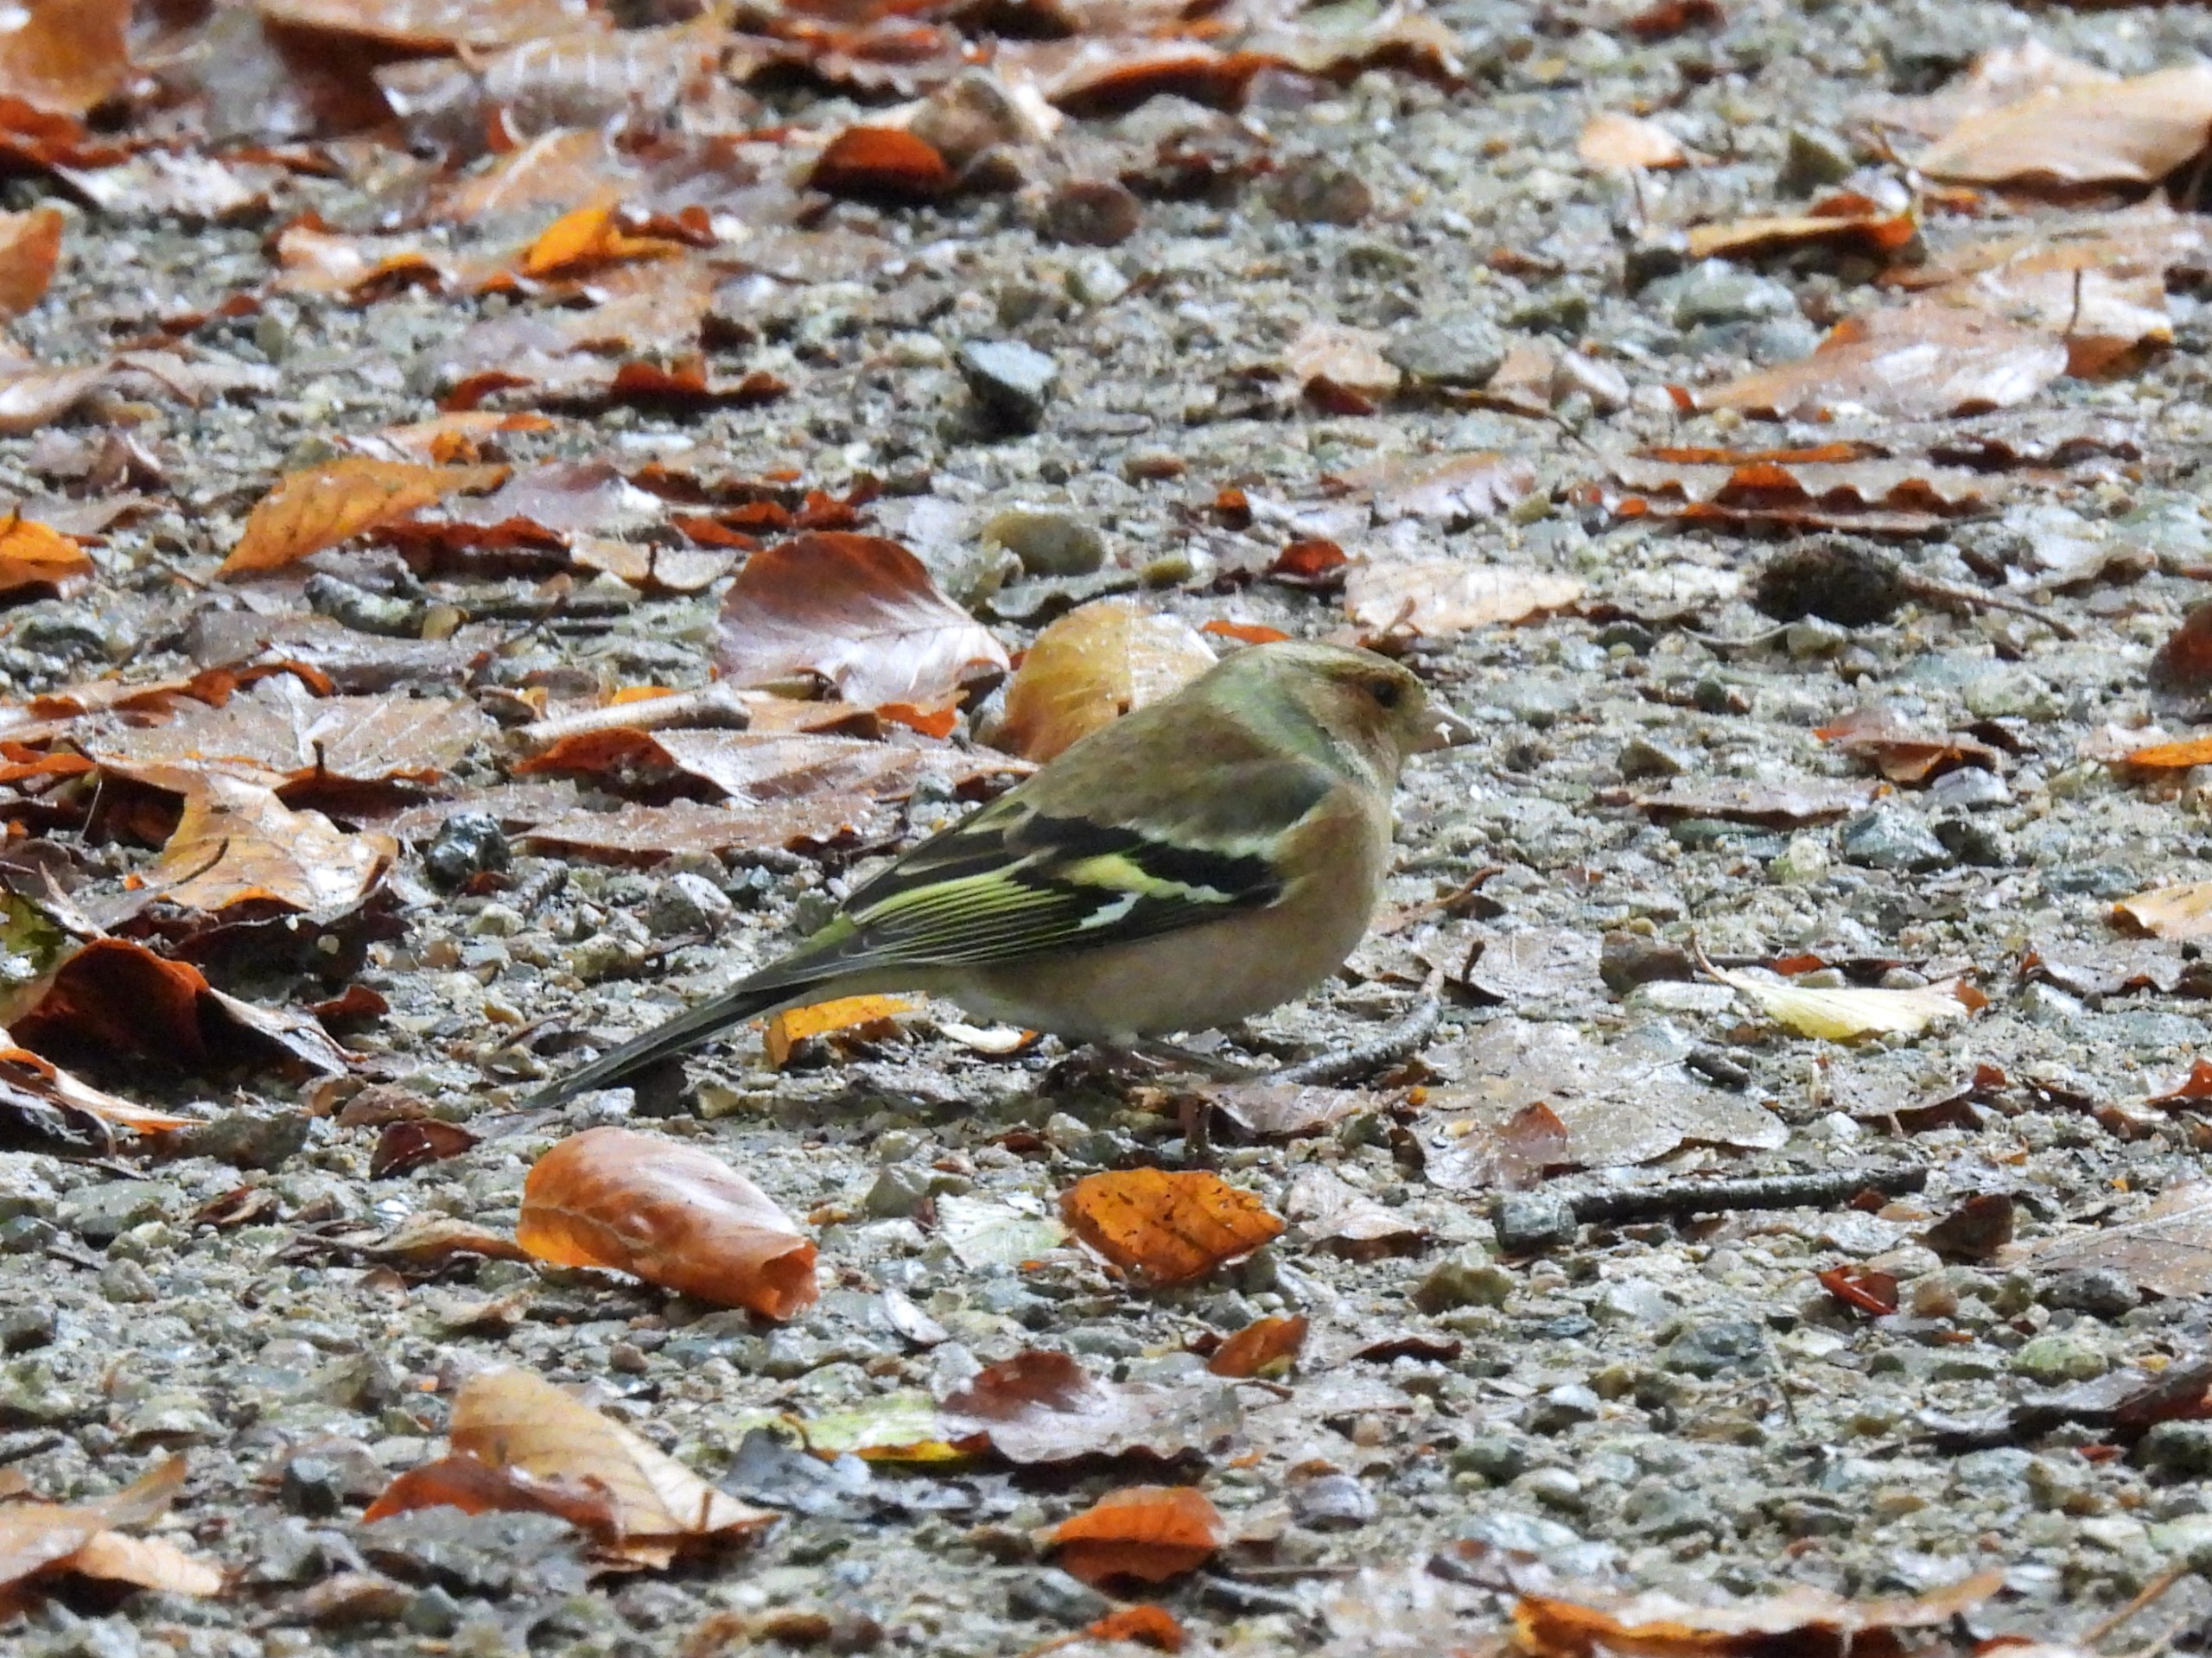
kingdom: Animalia
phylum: Chordata
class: Aves
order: Passeriformes
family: Fringillidae
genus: Fringilla
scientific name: Fringilla coelebs
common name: Bogfinke
